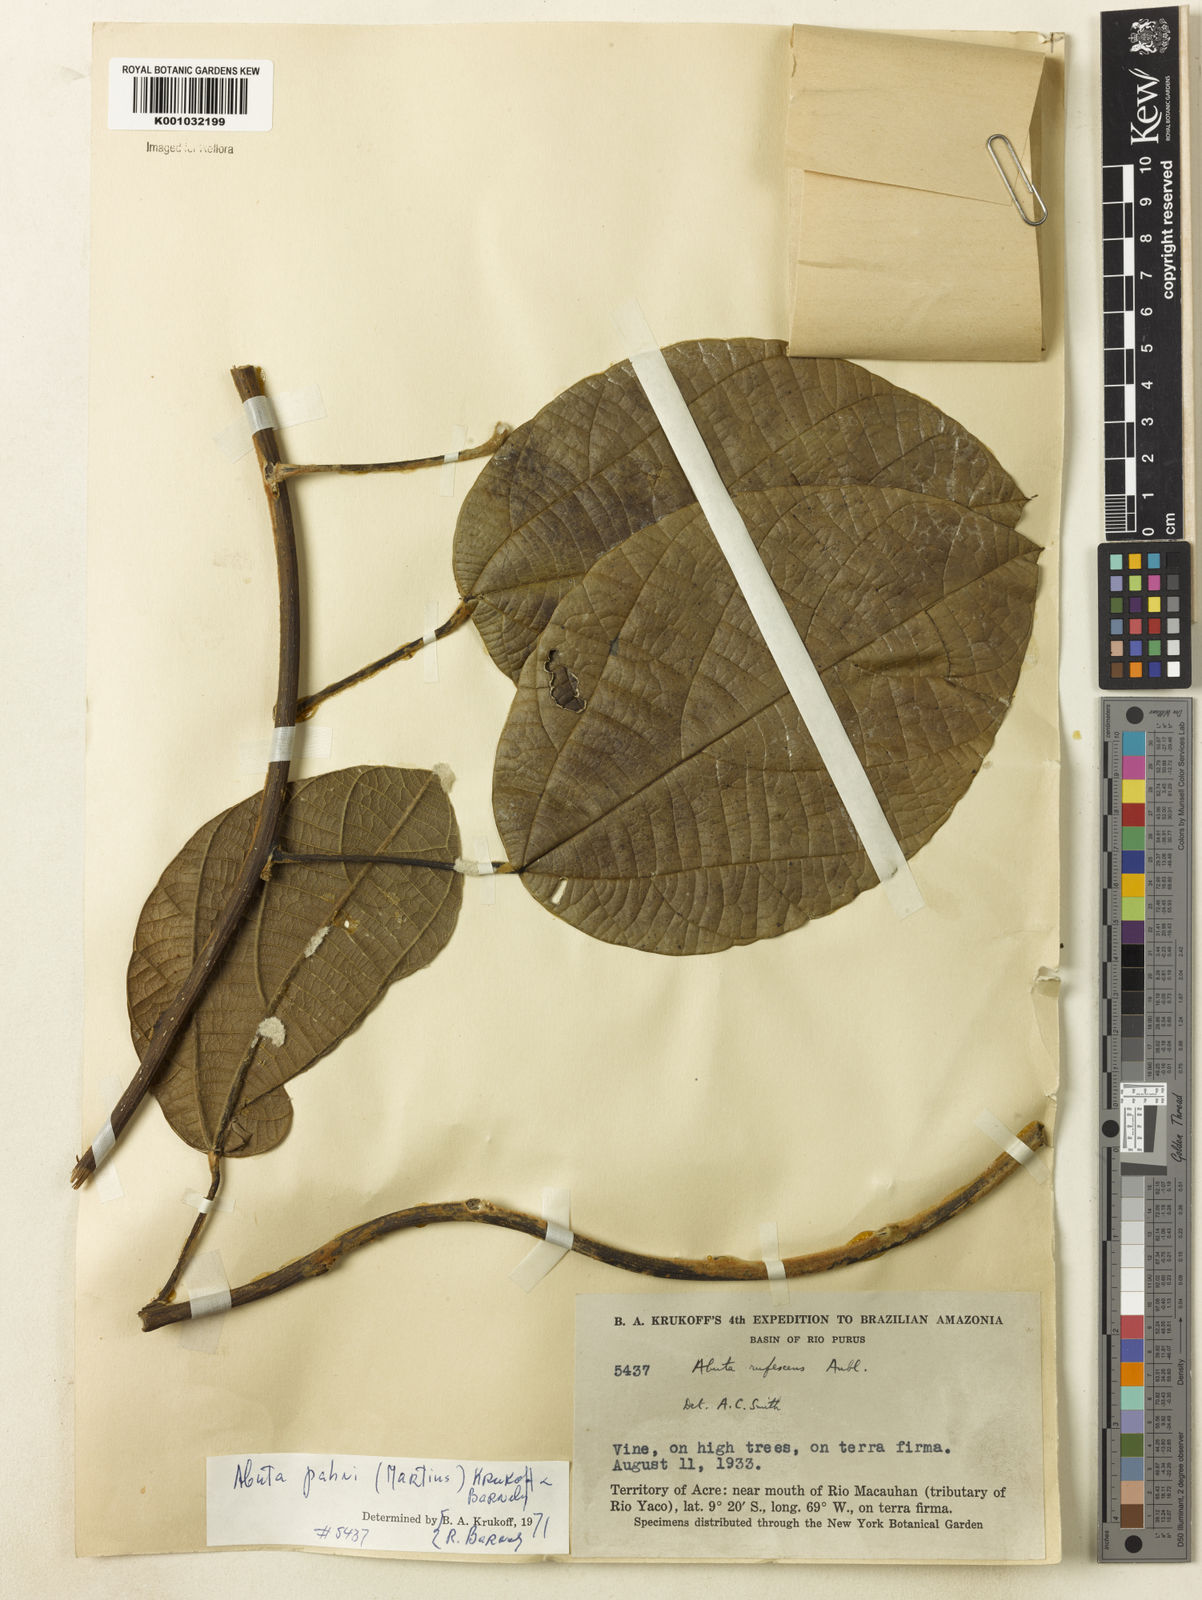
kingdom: Plantae
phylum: Tracheophyta
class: Magnoliopsida
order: Ranunculales
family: Menispermaceae
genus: Abuta
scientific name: Abuta pahni
